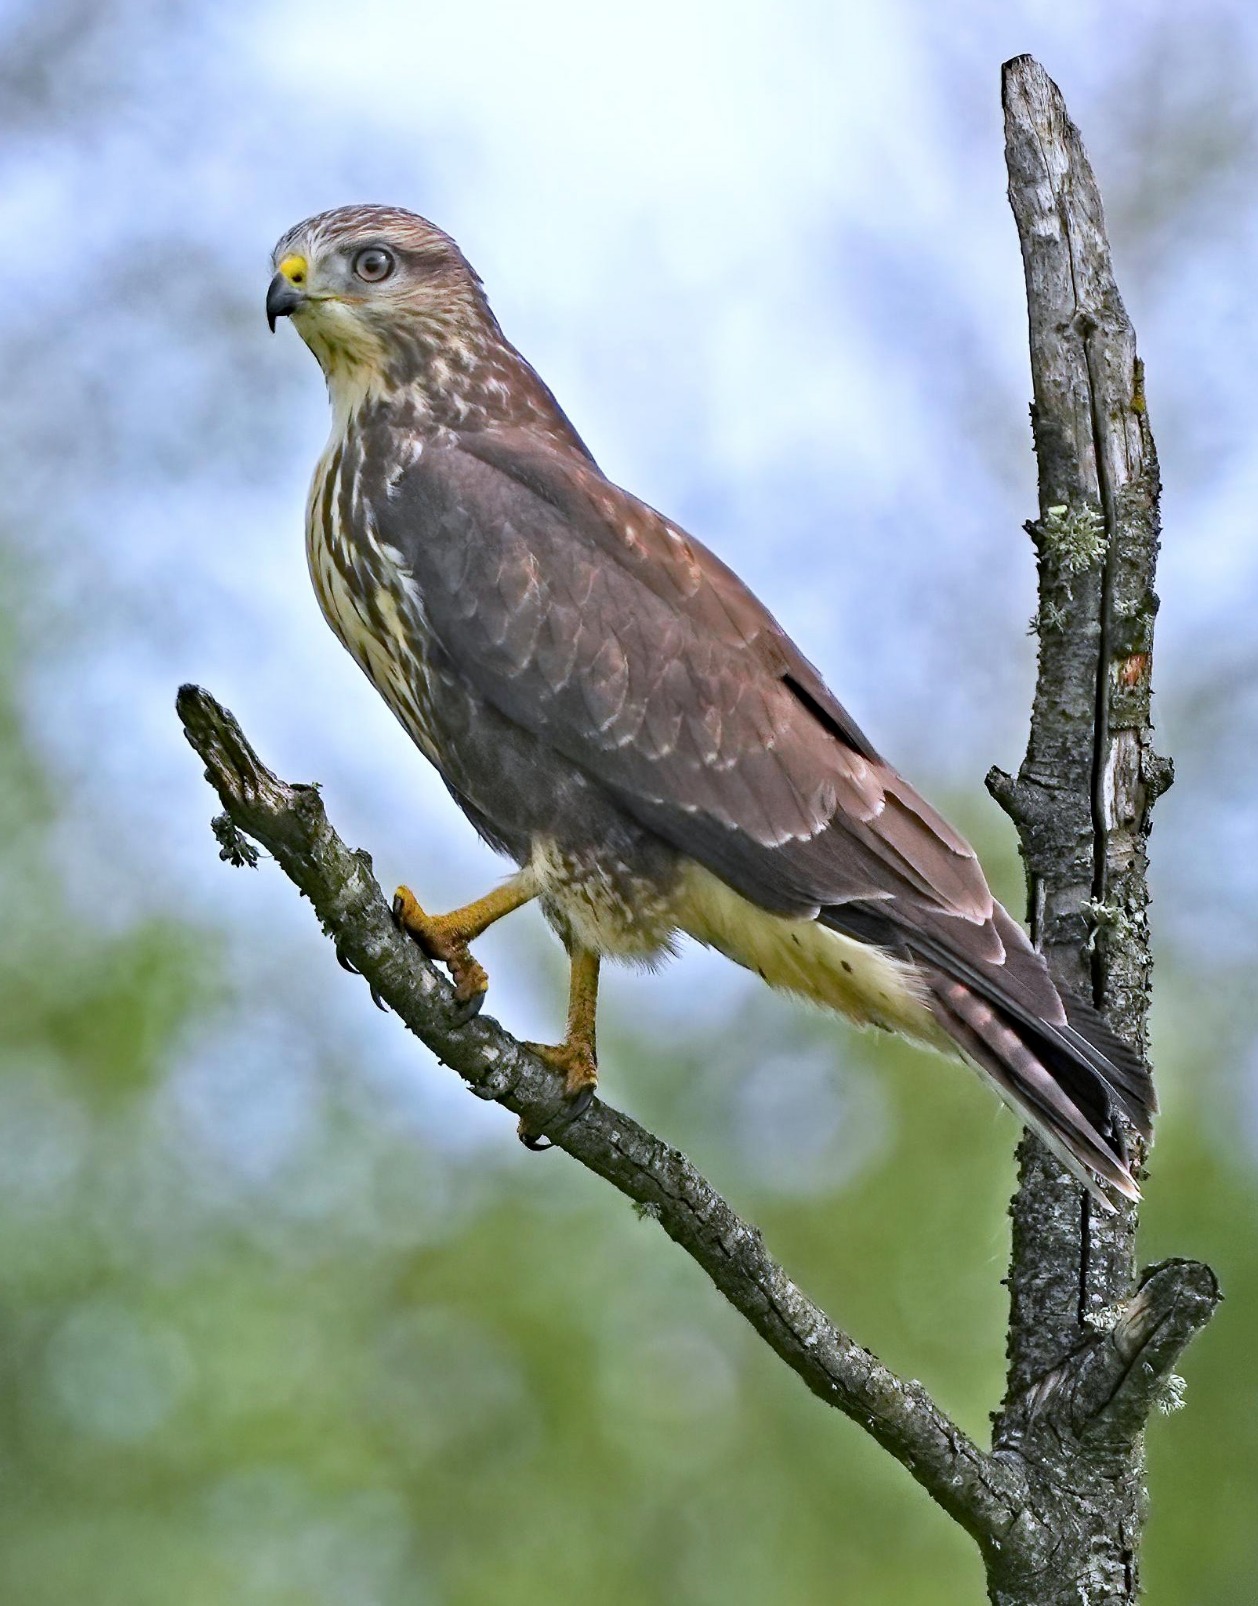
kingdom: Animalia
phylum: Chordata
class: Aves
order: Accipitriformes
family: Accipitridae
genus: Buteo
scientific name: Buteo buteo
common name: Musvåge
